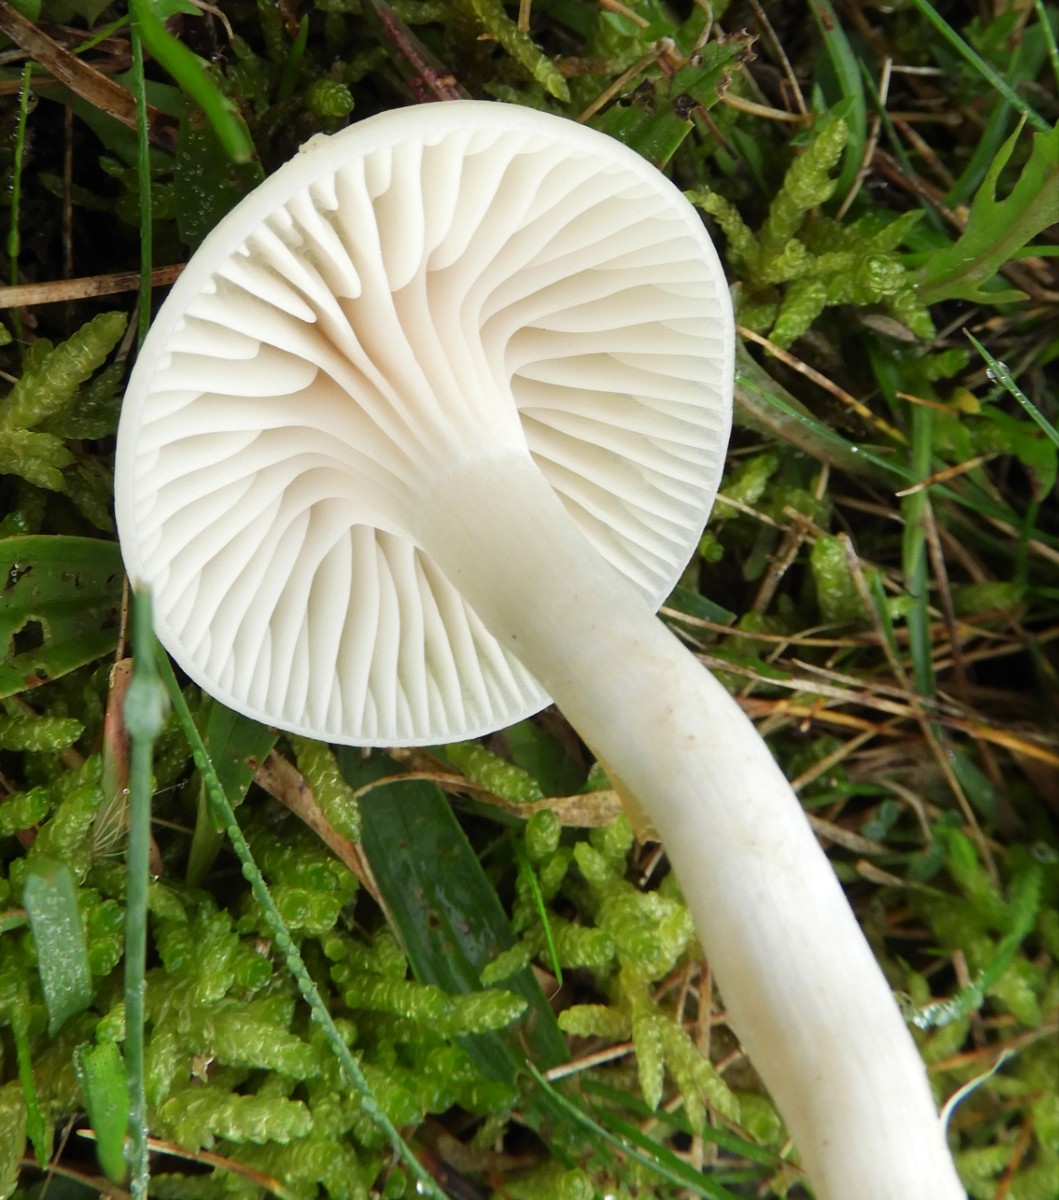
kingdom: Fungi
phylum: Basidiomycota
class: Agaricomycetes
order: Agaricales
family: Hygrophoraceae
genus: Cuphophyllus
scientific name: Cuphophyllus
